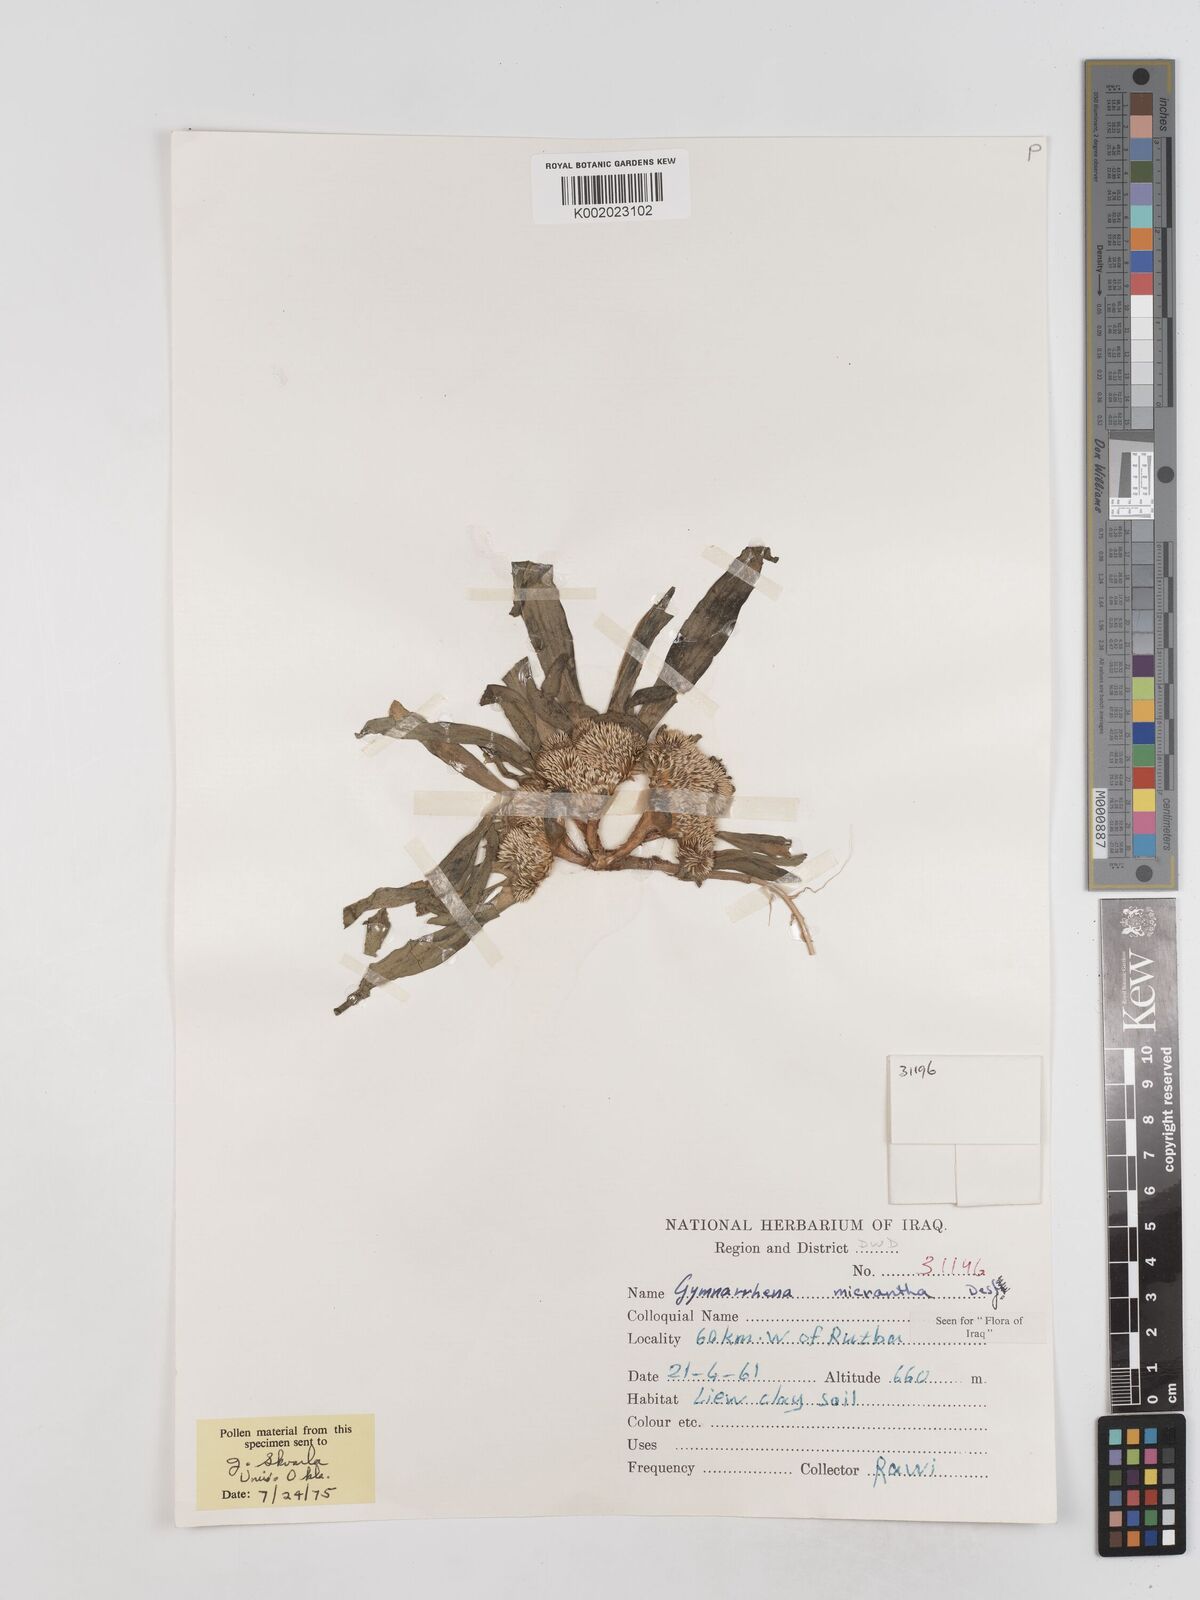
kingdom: Plantae
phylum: Tracheophyta
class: Magnoliopsida
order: Asterales
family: Asteraceae
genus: Gymnarrhena
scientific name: Gymnarrhena micrantha
